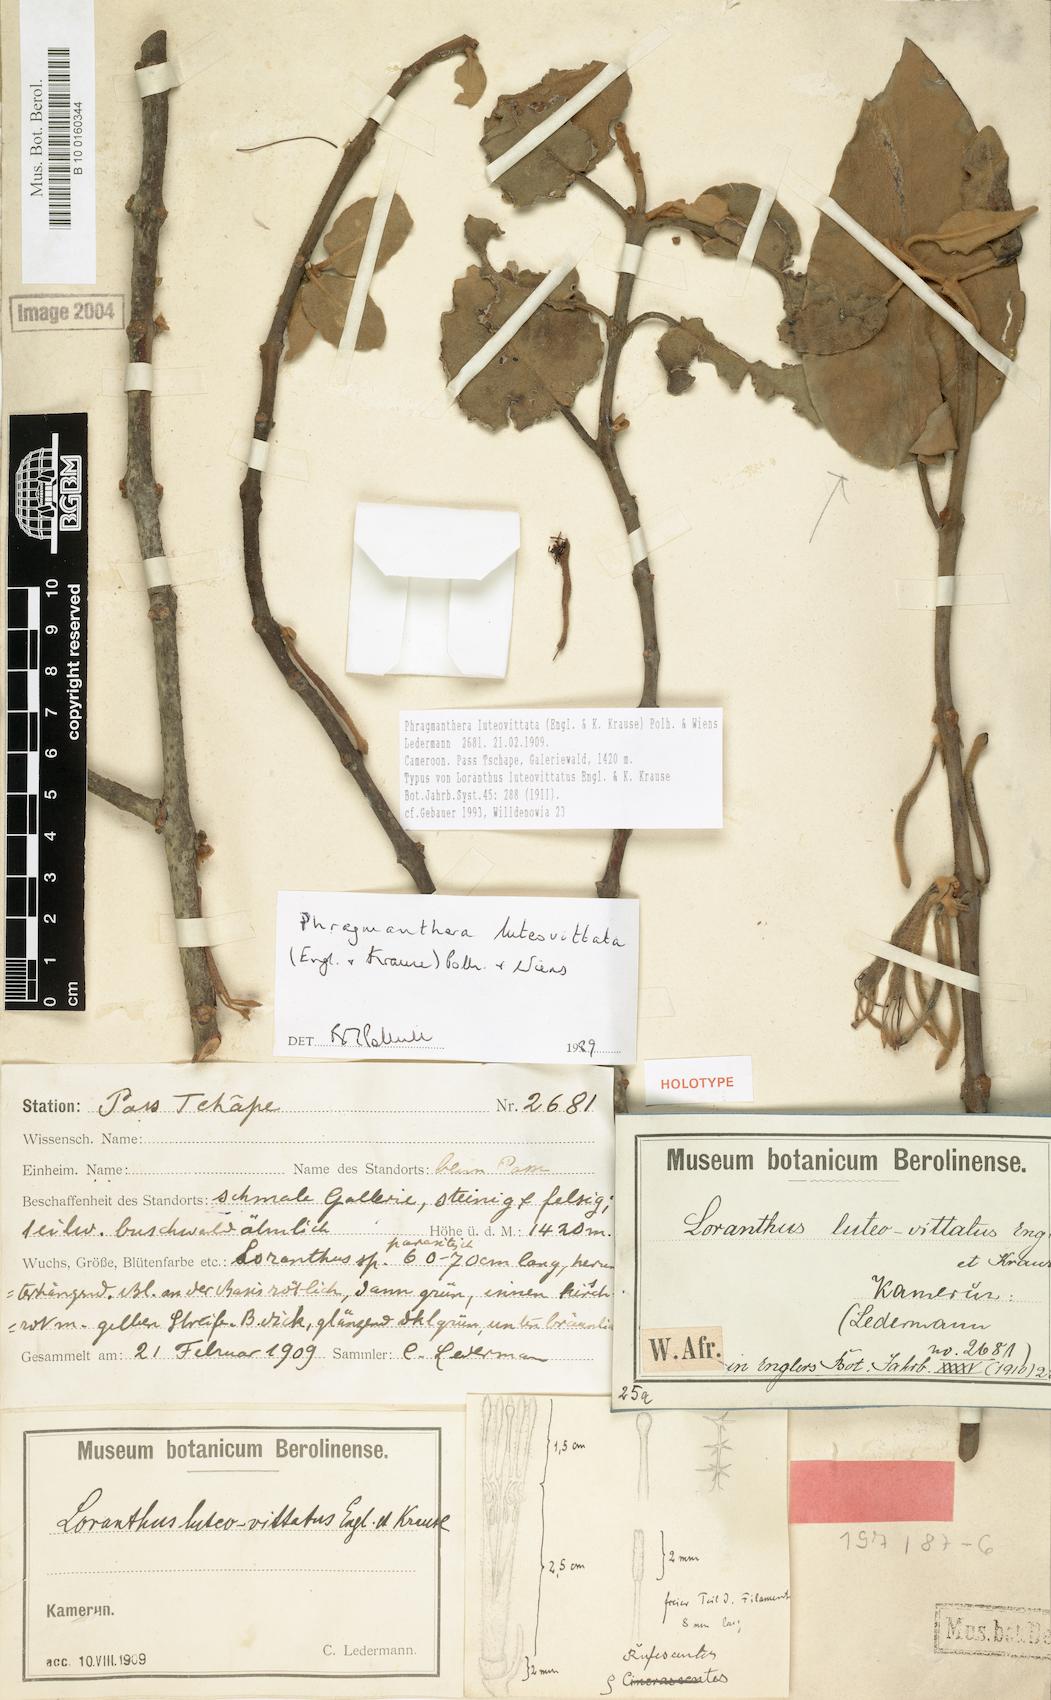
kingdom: Plantae
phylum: Tracheophyta
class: Magnoliopsida
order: Santalales
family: Loranthaceae
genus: Phragmanthera
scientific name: Phragmanthera luteovittata
